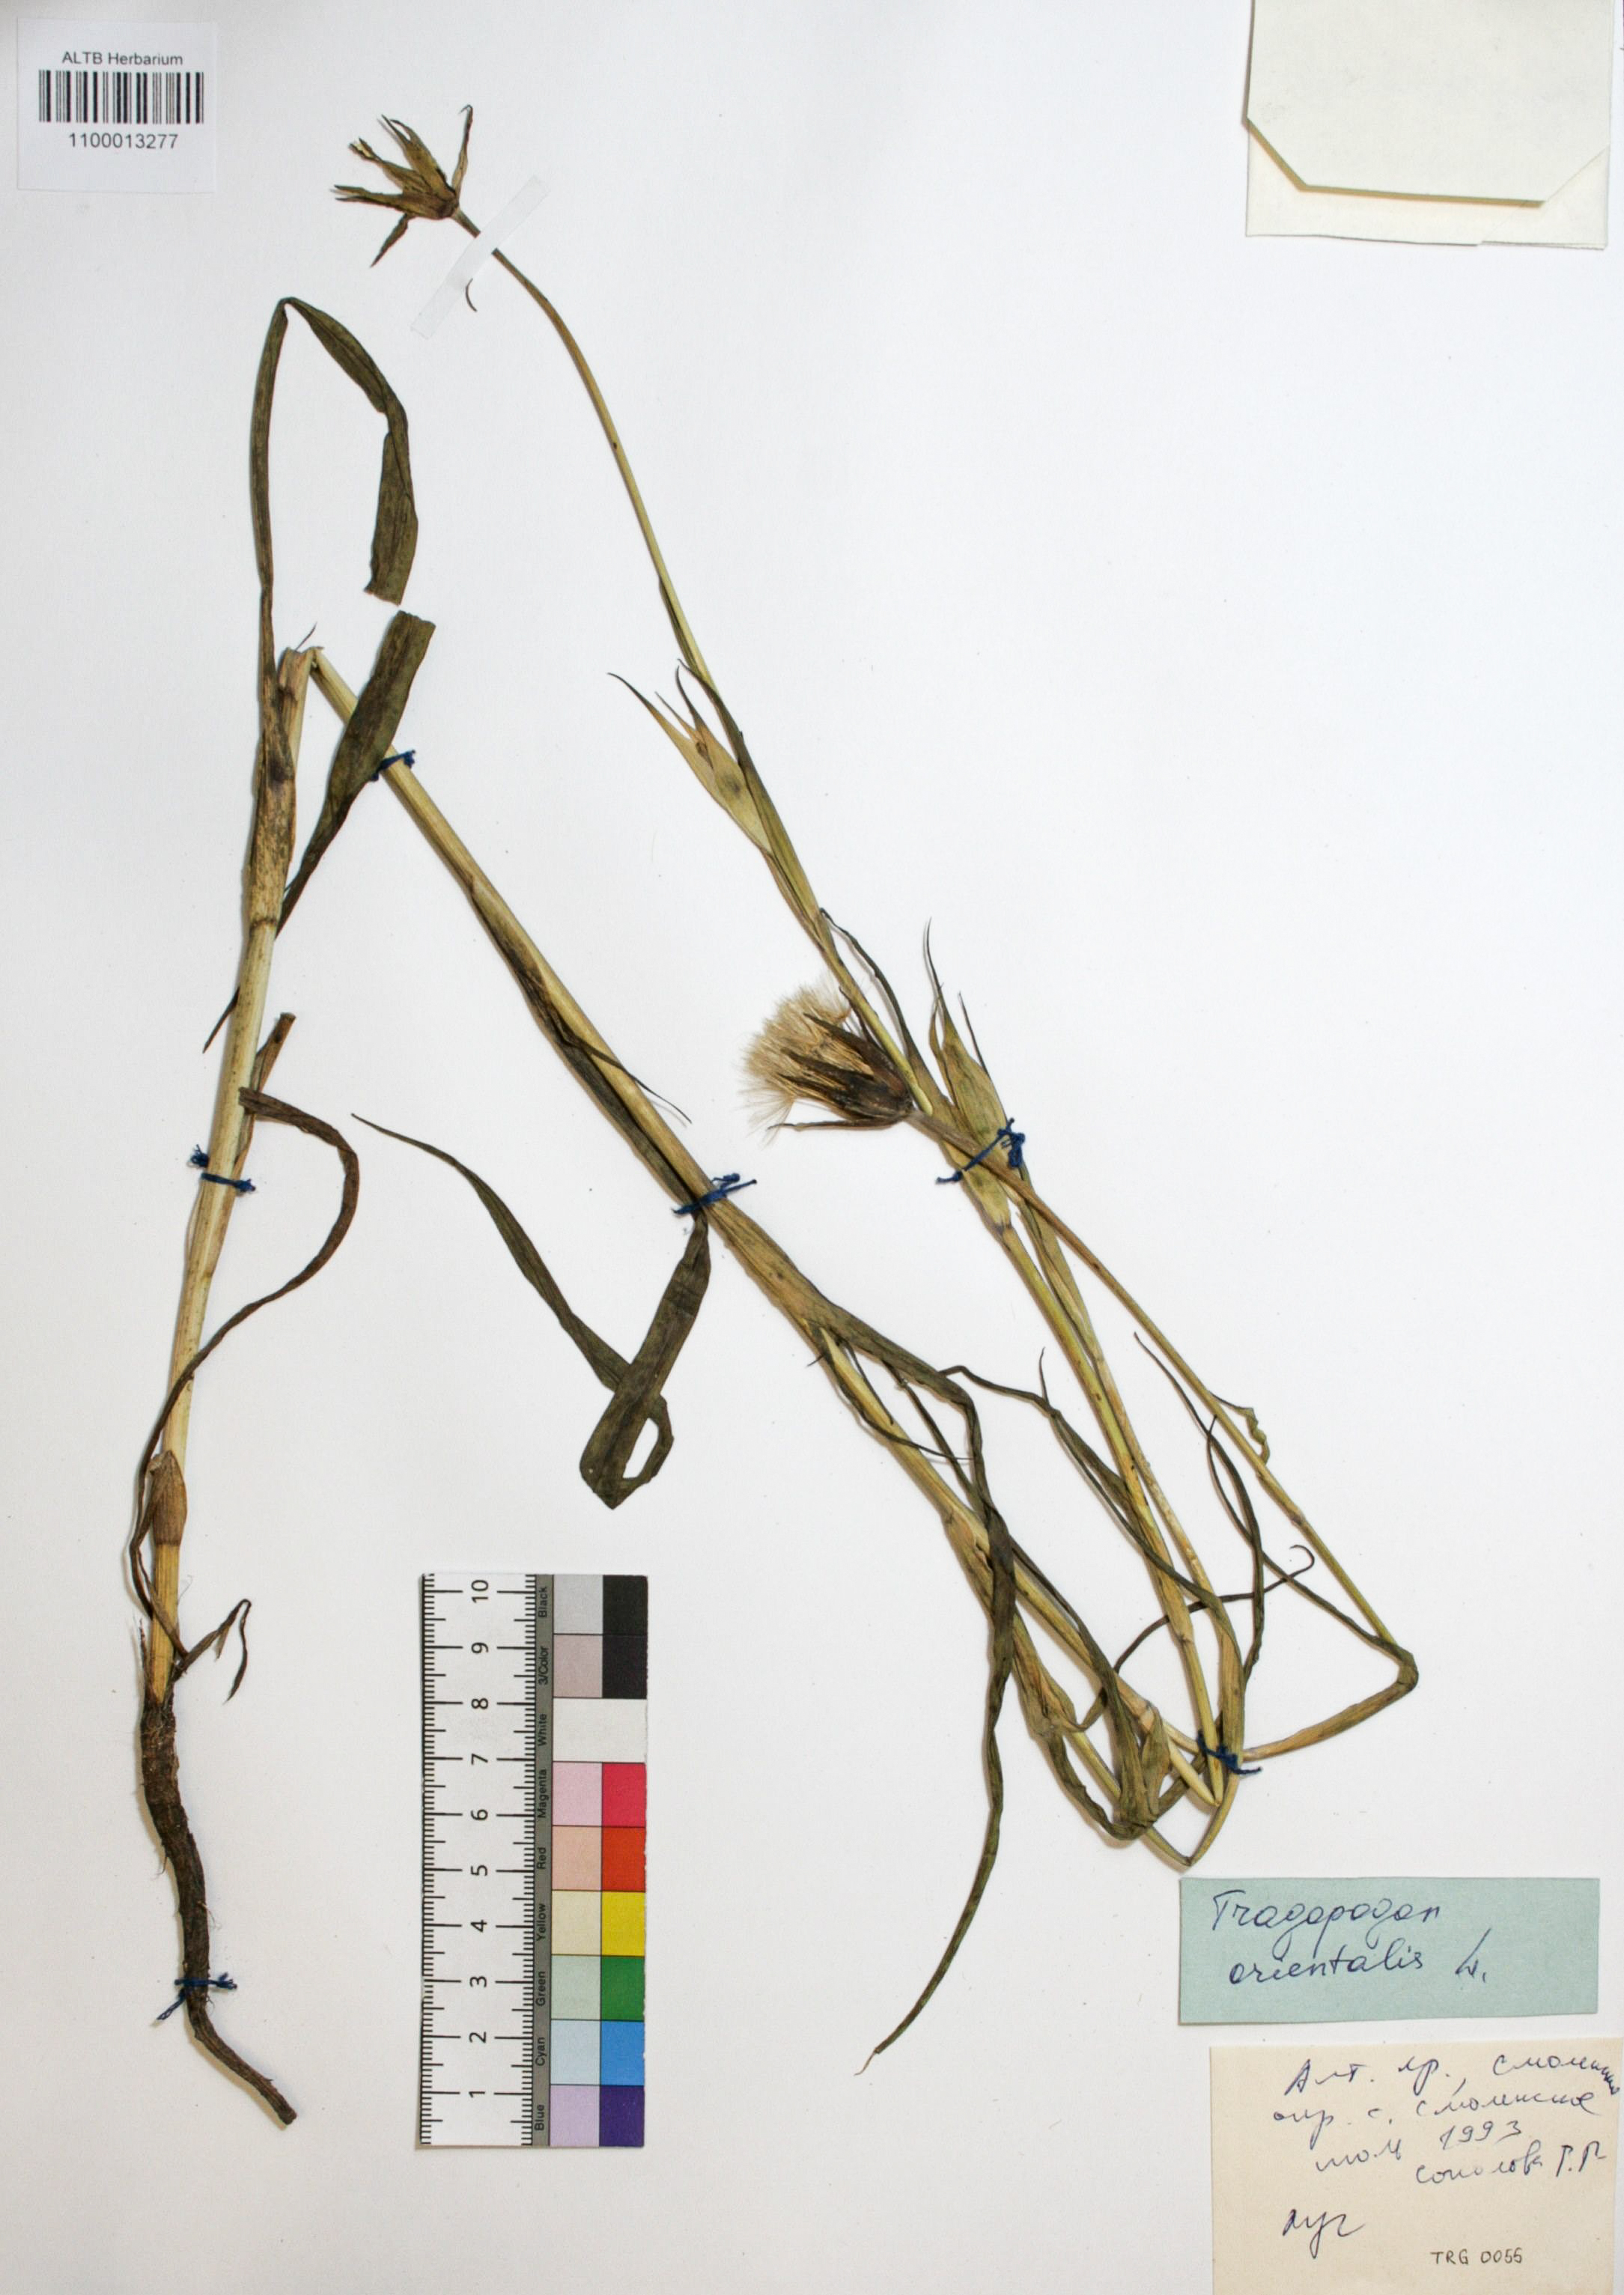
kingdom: Plantae
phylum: Tracheophyta
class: Magnoliopsida
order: Asterales
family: Asteraceae
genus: Tragopogon
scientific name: Tragopogon orientalis
